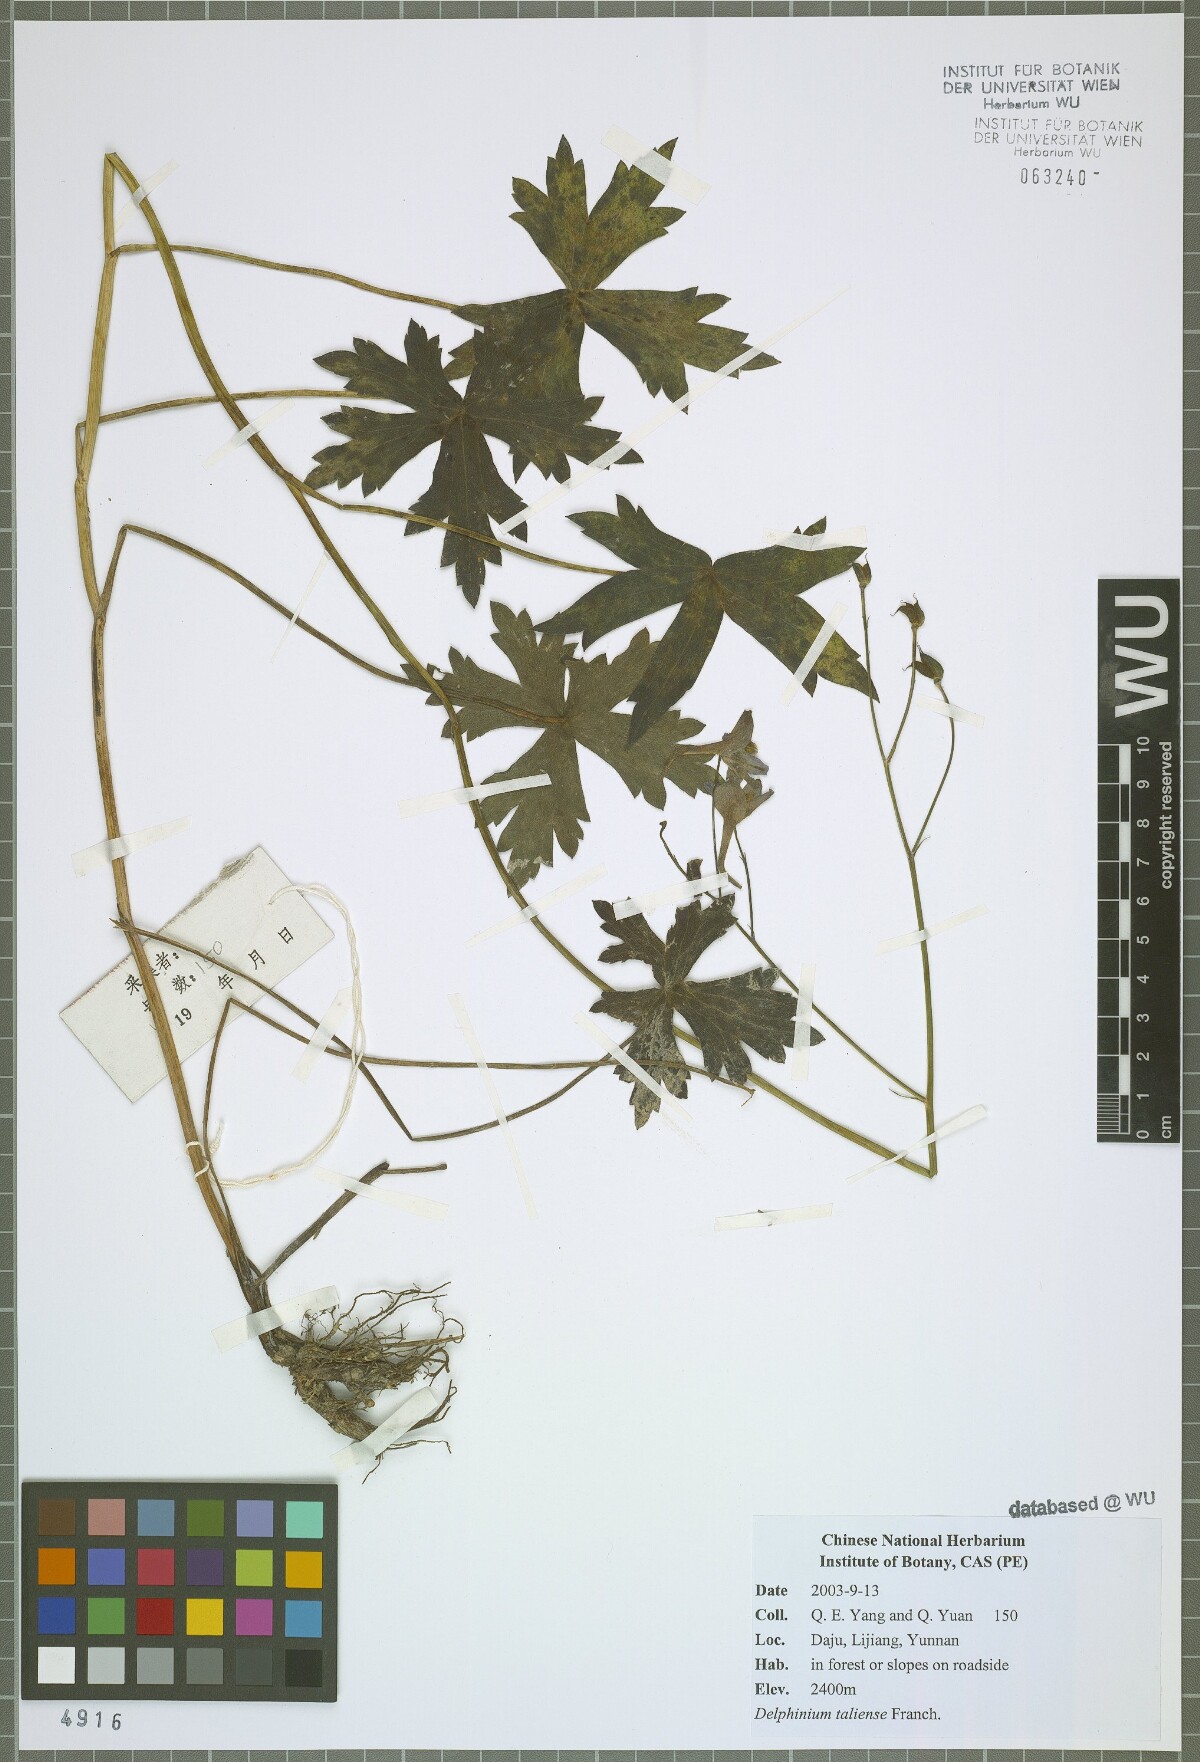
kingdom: Plantae
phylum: Tracheophyta
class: Magnoliopsida
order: Ranunculales
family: Ranunculaceae
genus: Delphinium
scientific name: Delphinium taliense
